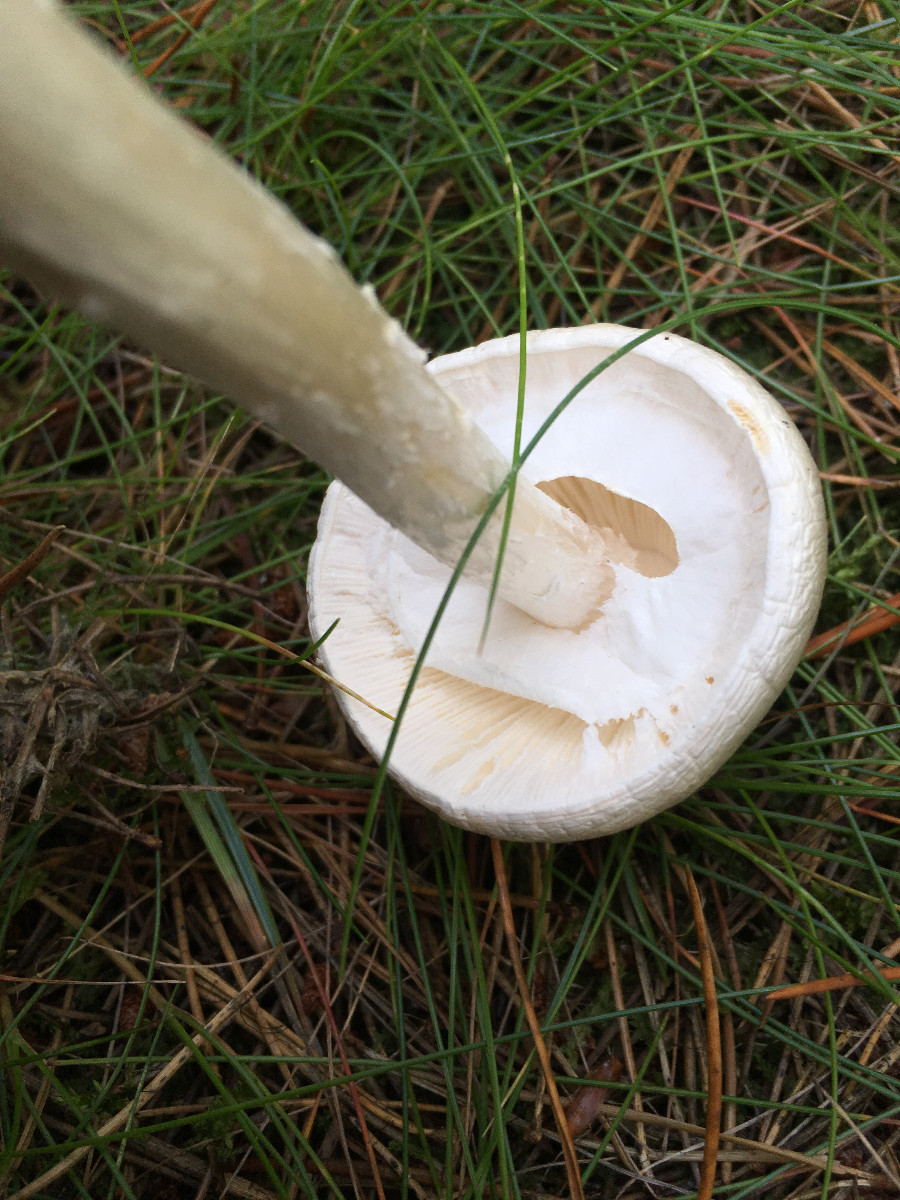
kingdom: Fungi
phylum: Basidiomycota
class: Agaricomycetes
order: Agaricales
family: Amanitaceae
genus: Amanita
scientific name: Amanita virosa
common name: snehvid fluesvamp
